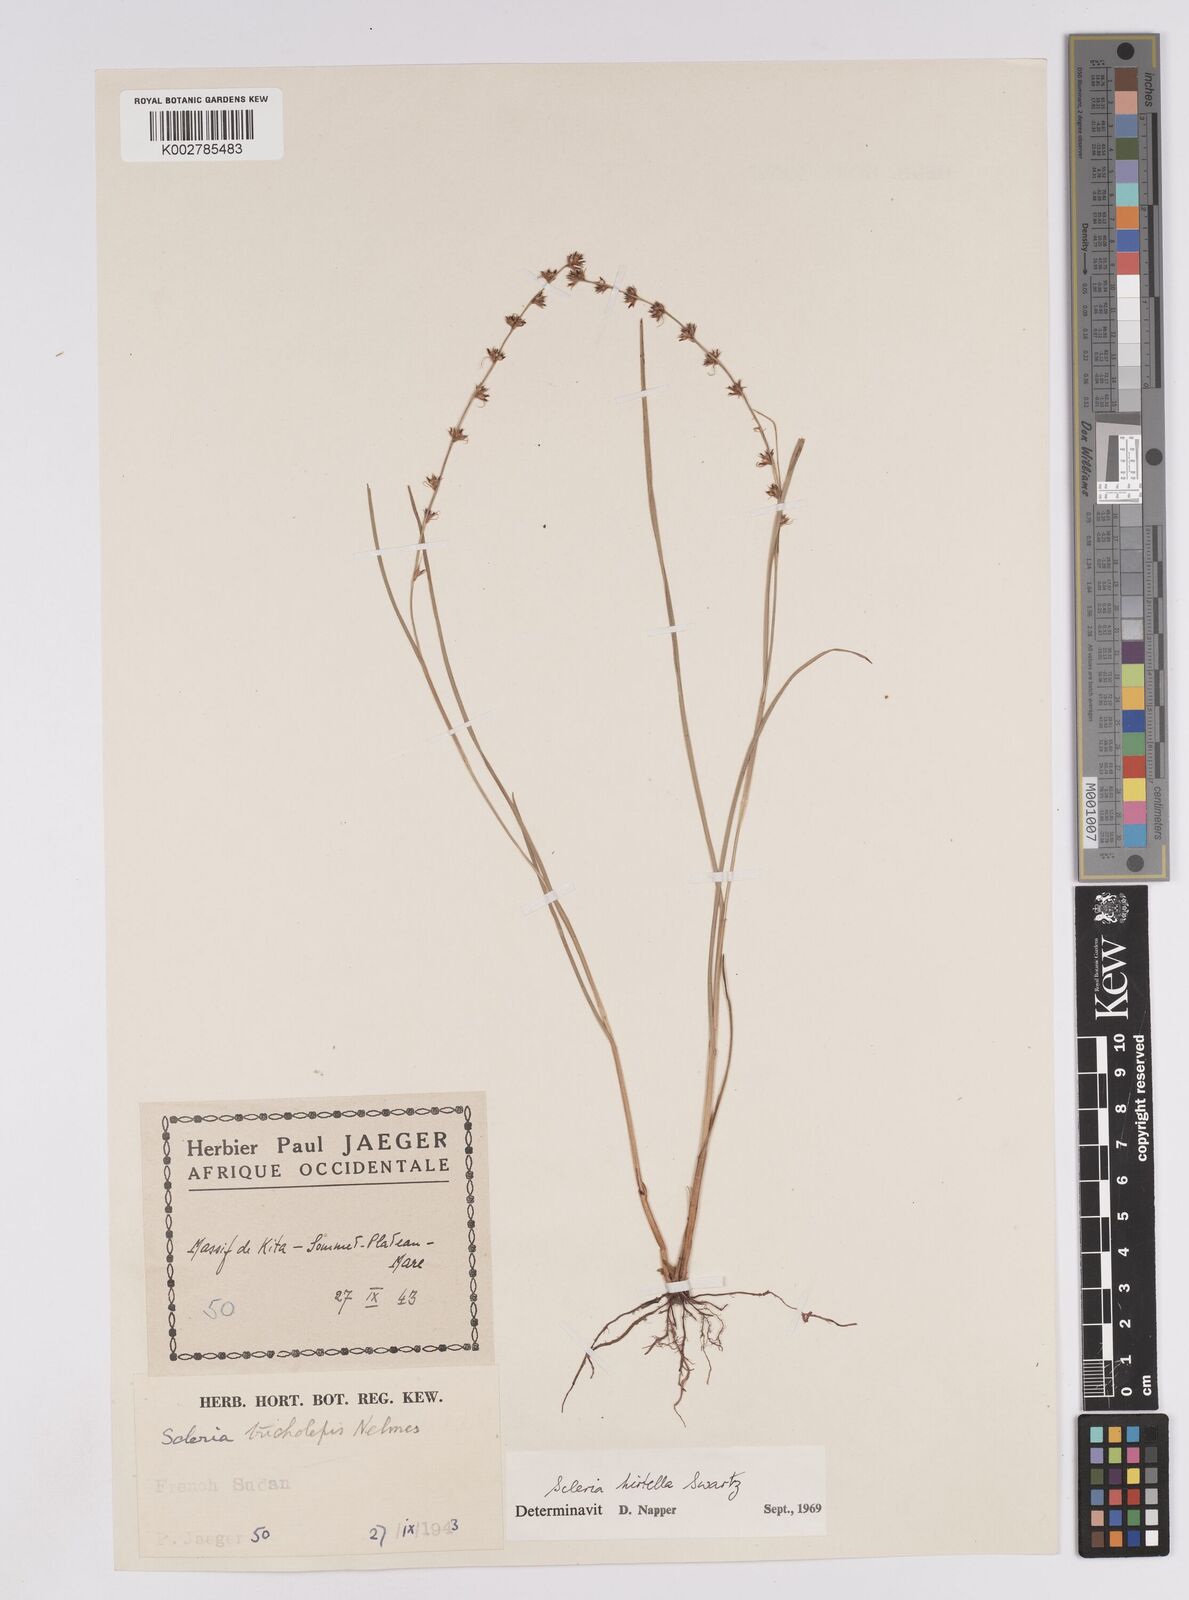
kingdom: Plantae
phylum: Tracheophyta
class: Liliopsida
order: Poales
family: Cyperaceae
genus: Scleria
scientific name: Scleria tricholepis
